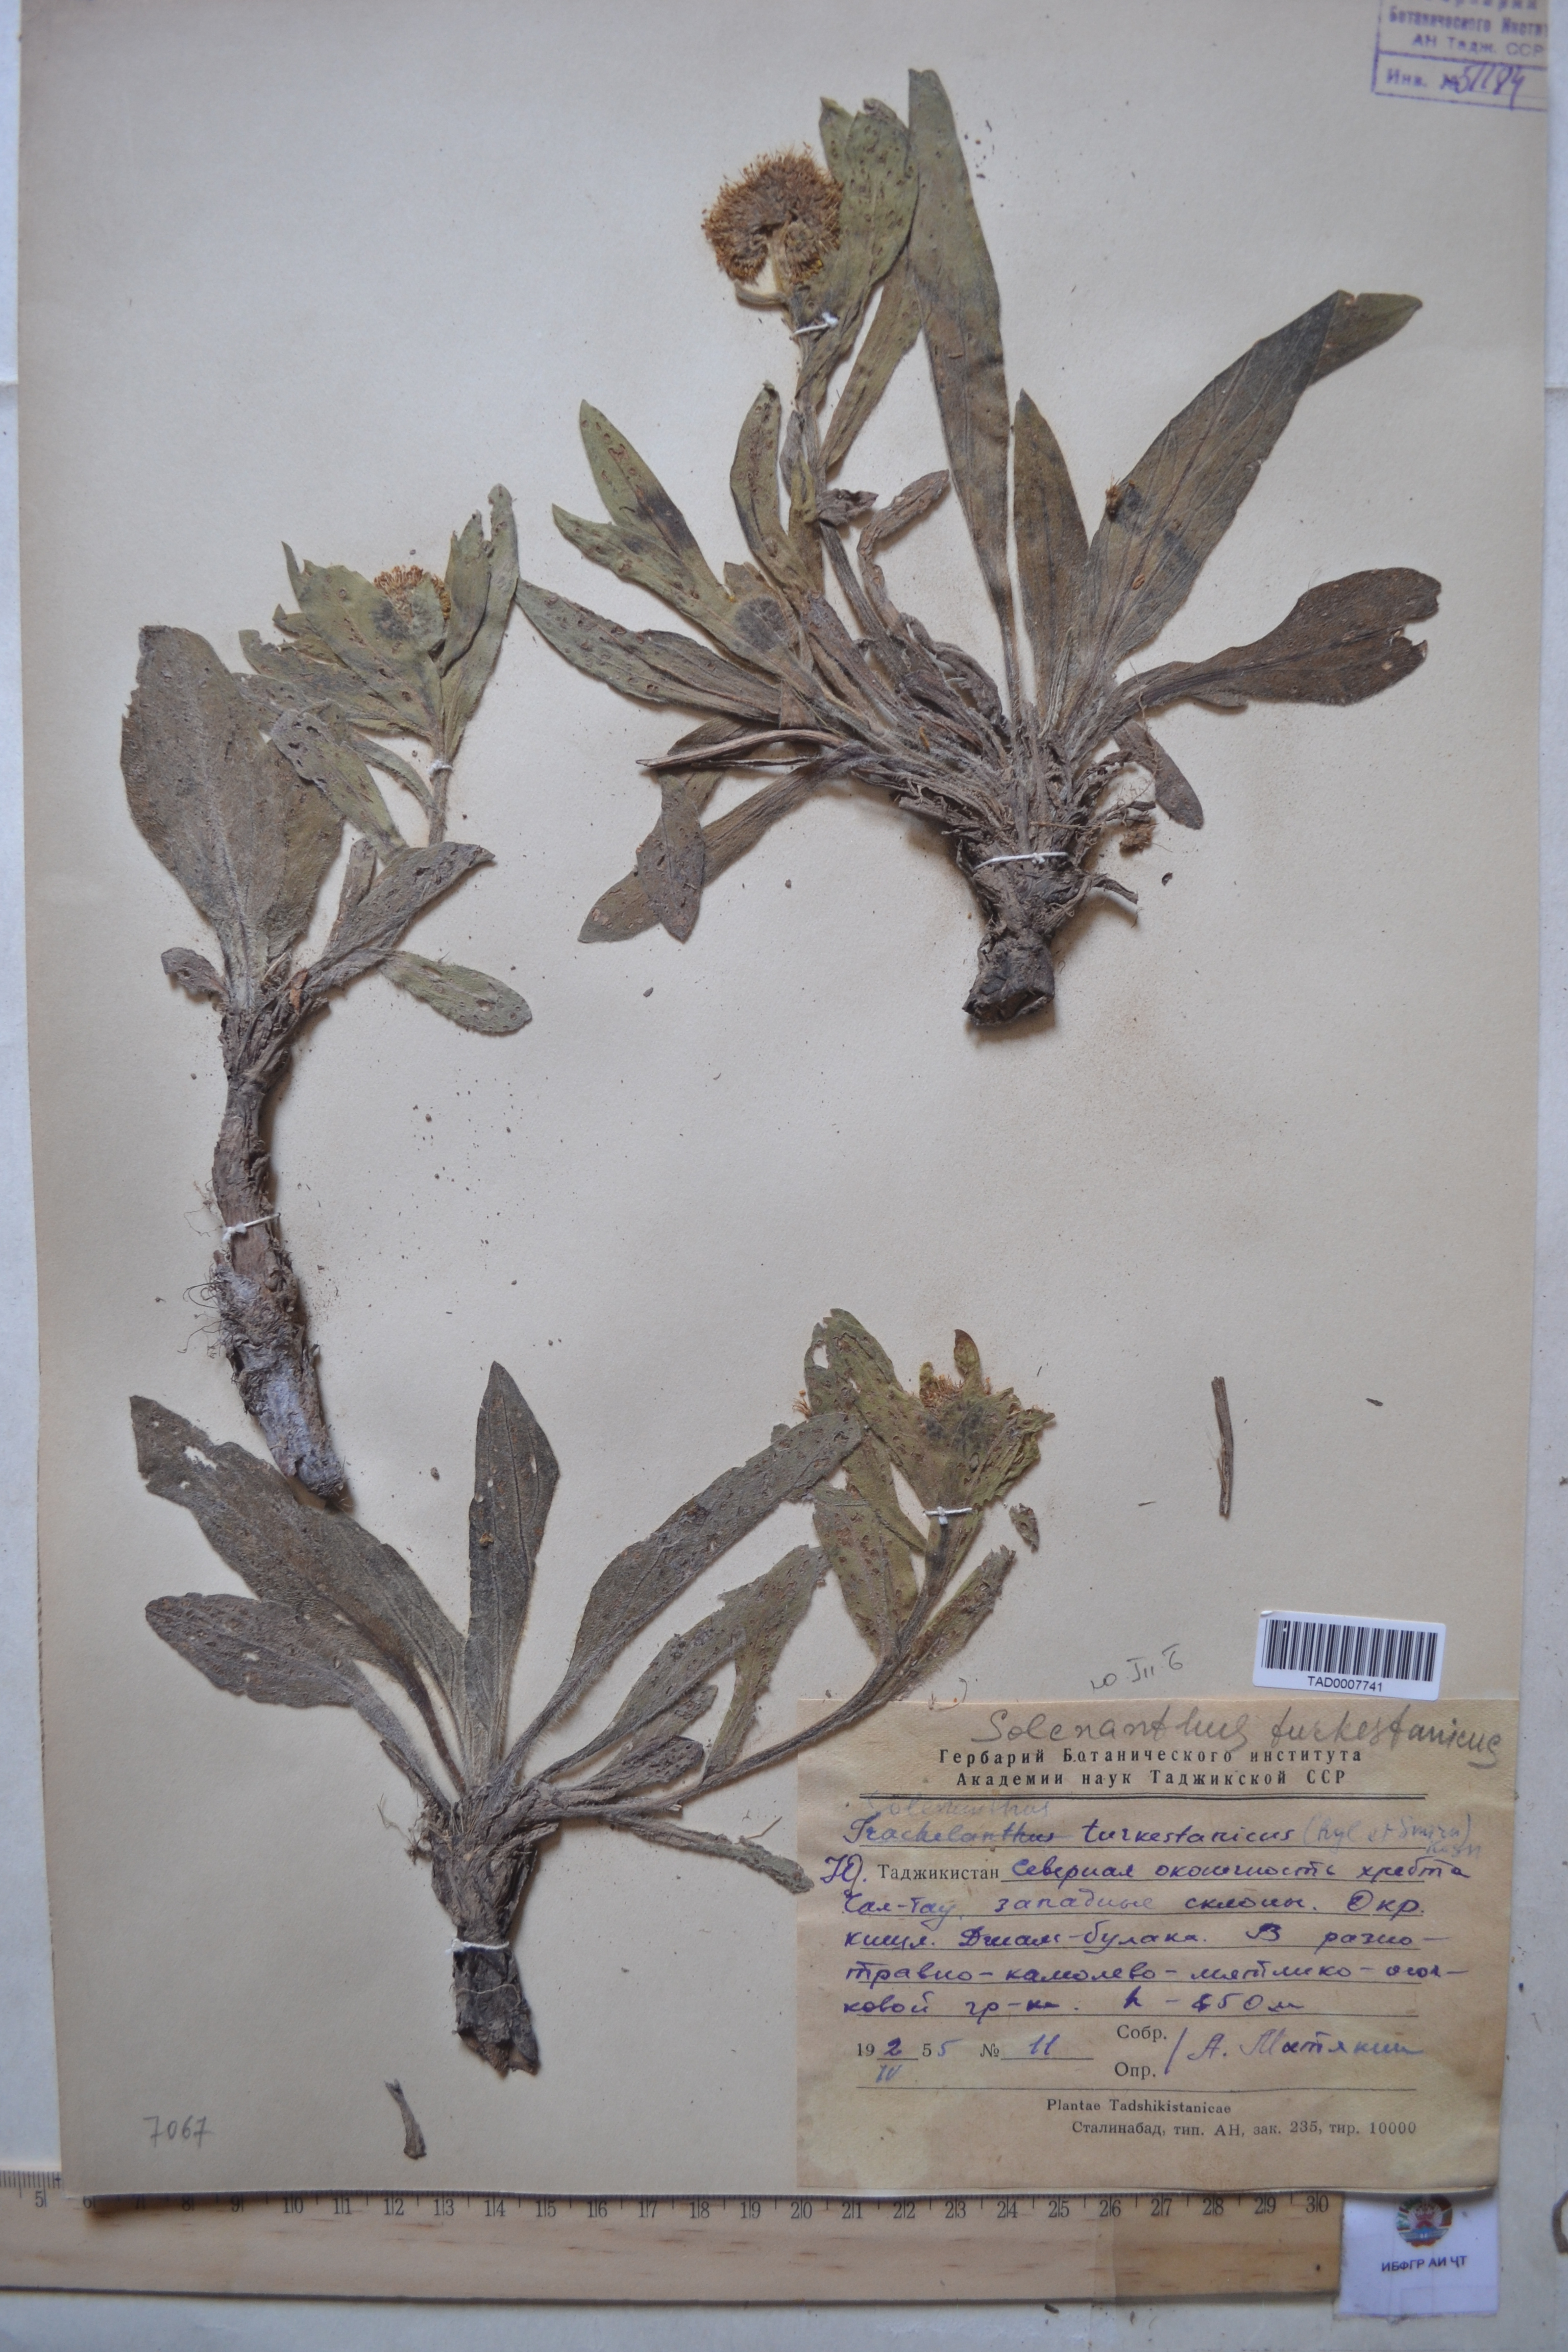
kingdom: Plantae
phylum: Tracheophyta
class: Magnoliopsida
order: Boraginales
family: Boraginaceae
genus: Solenanthus
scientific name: Solenanthus turkestanicus
